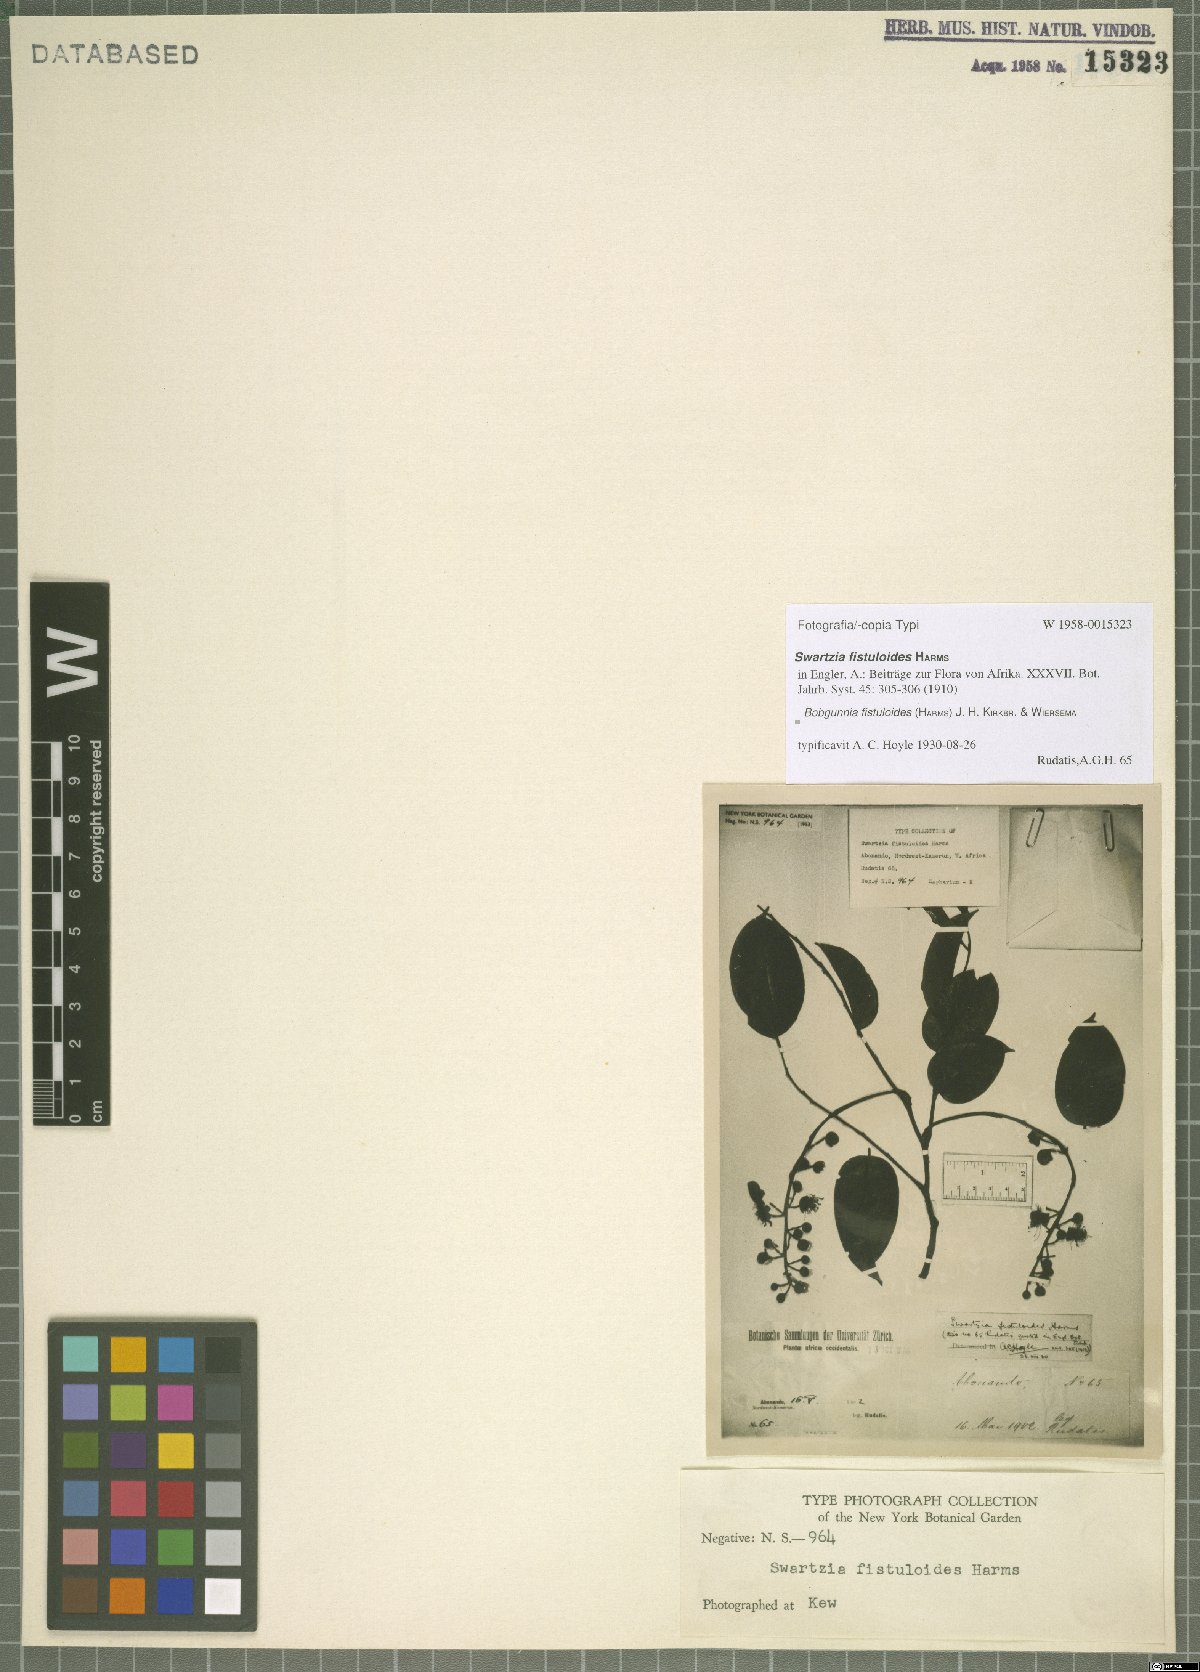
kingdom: Plantae
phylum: Tracheophyta
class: Magnoliopsida
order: Fabales
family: Fabaceae
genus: Bobgunnia
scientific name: Bobgunnia fistuloides
